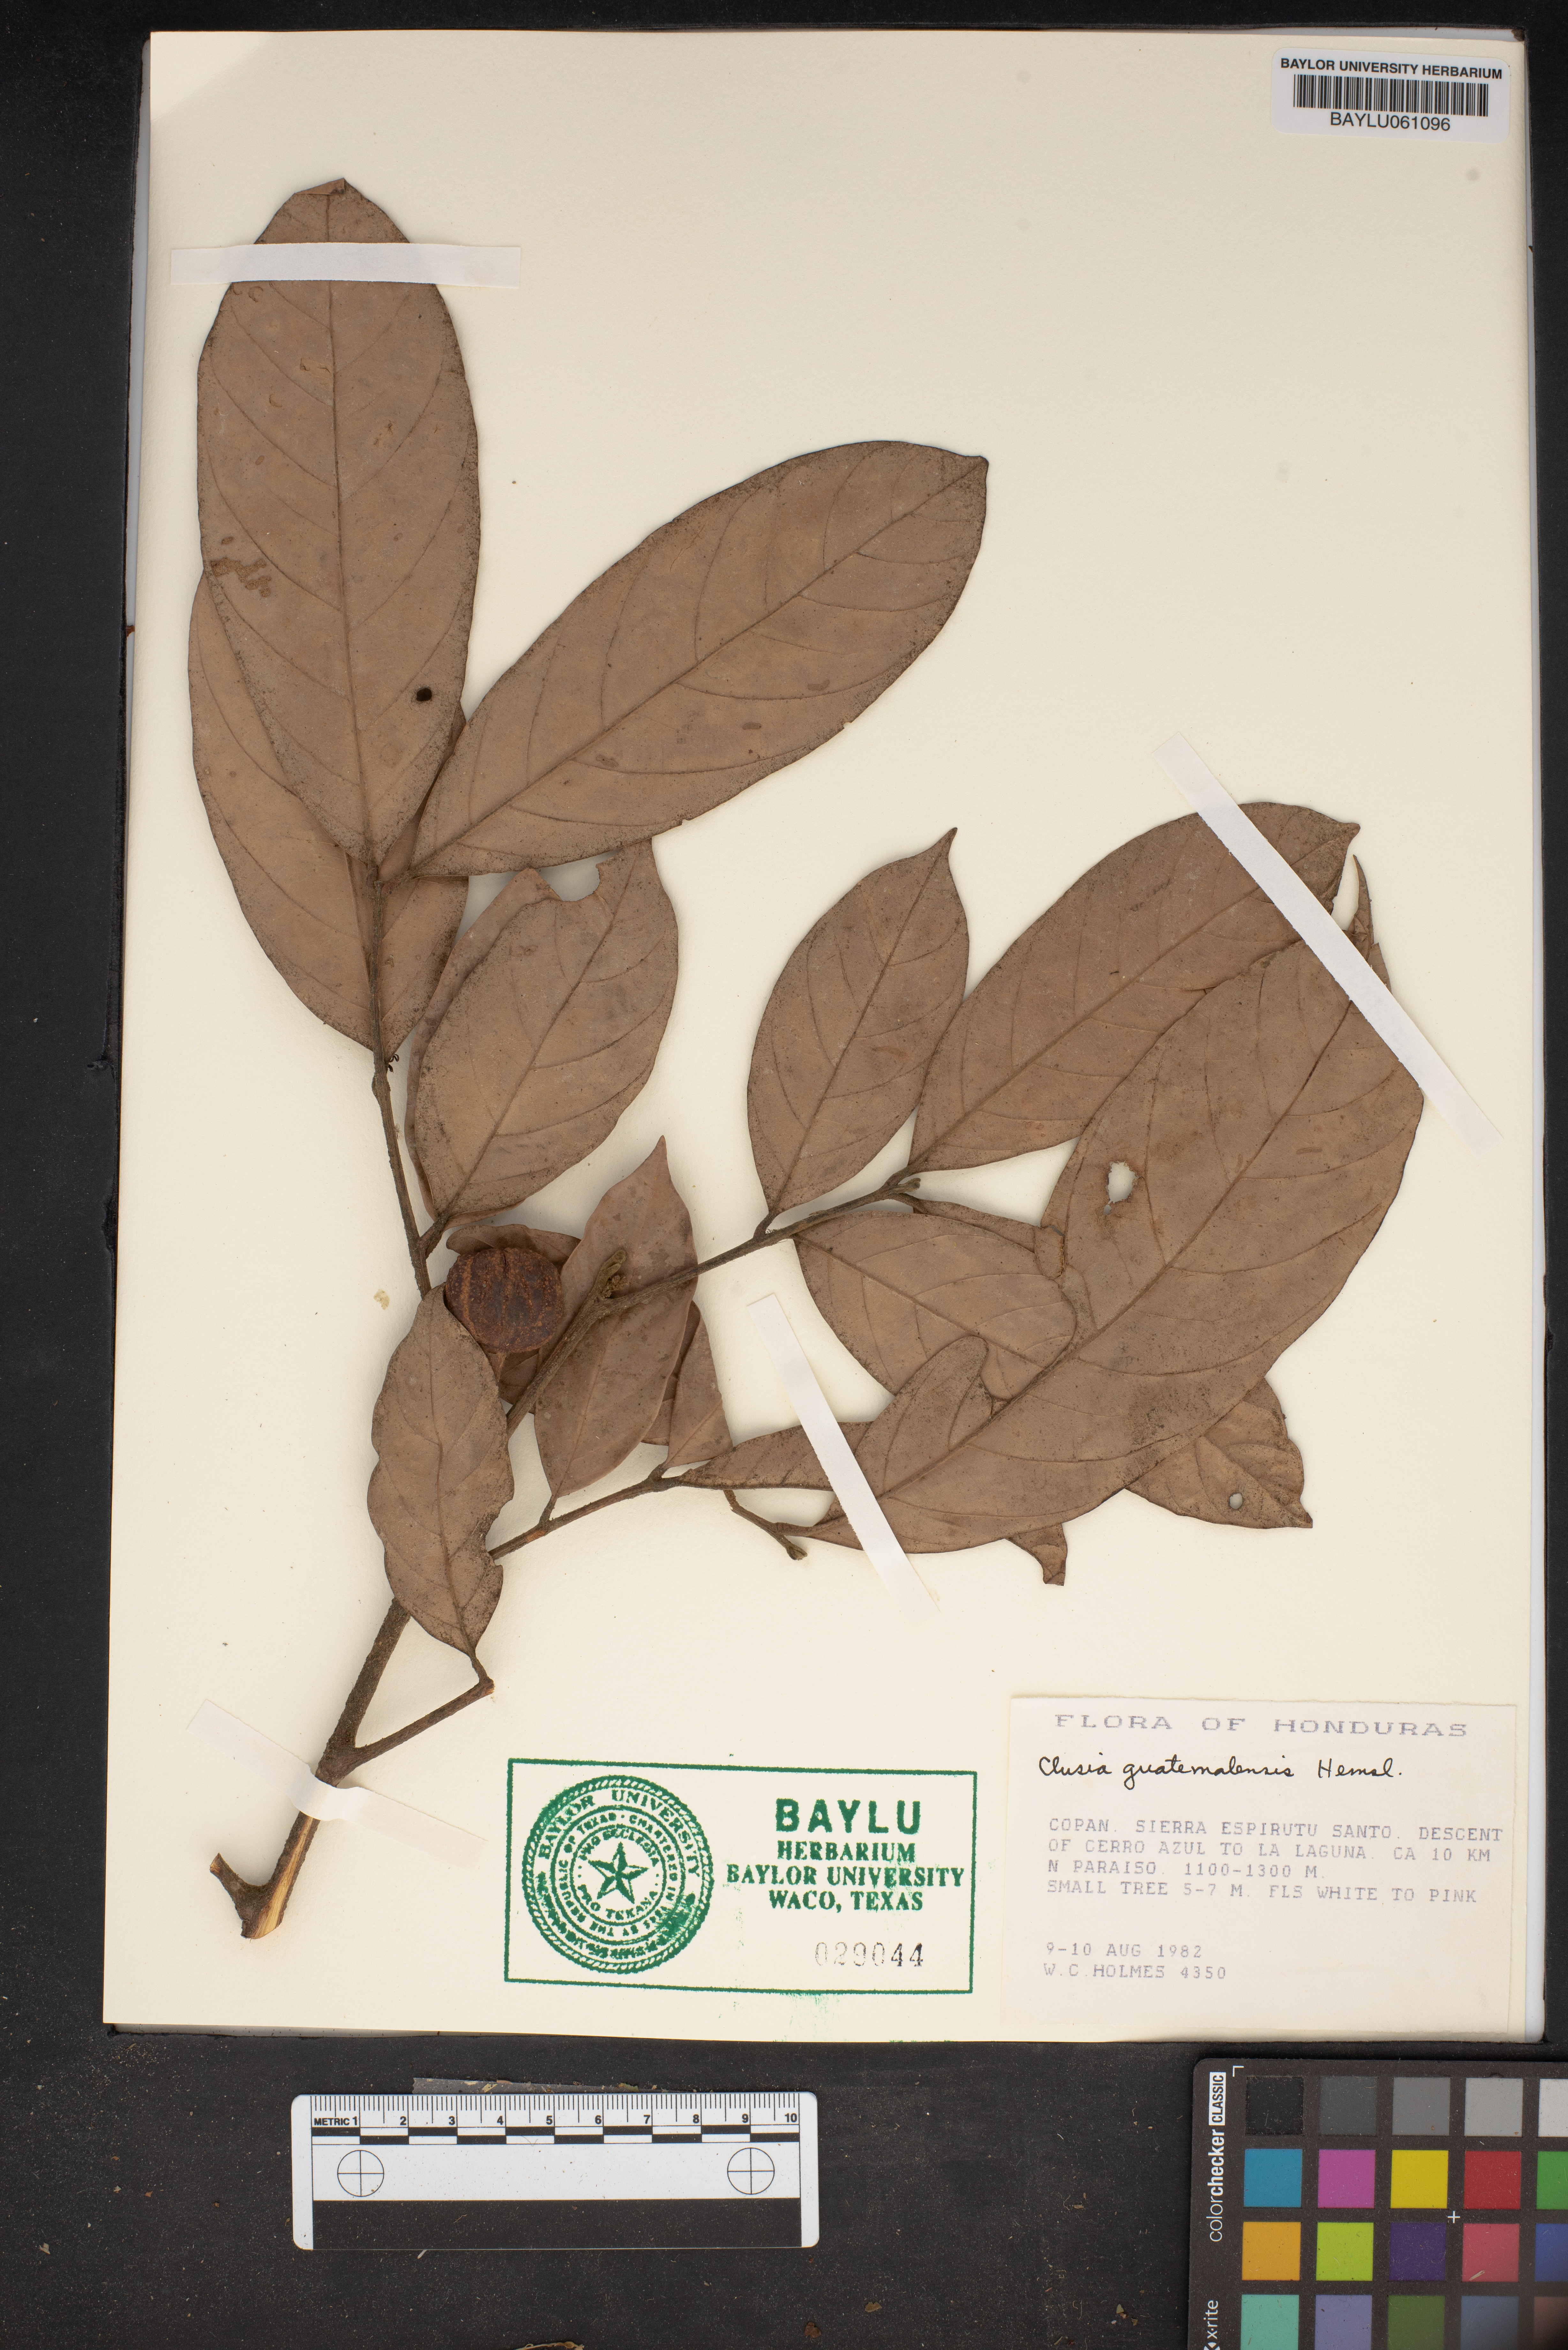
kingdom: Plantae
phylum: Tracheophyta
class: Magnoliopsida
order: Malpighiales
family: Clusiaceae
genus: Clusia
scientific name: Clusia guatemalensis
